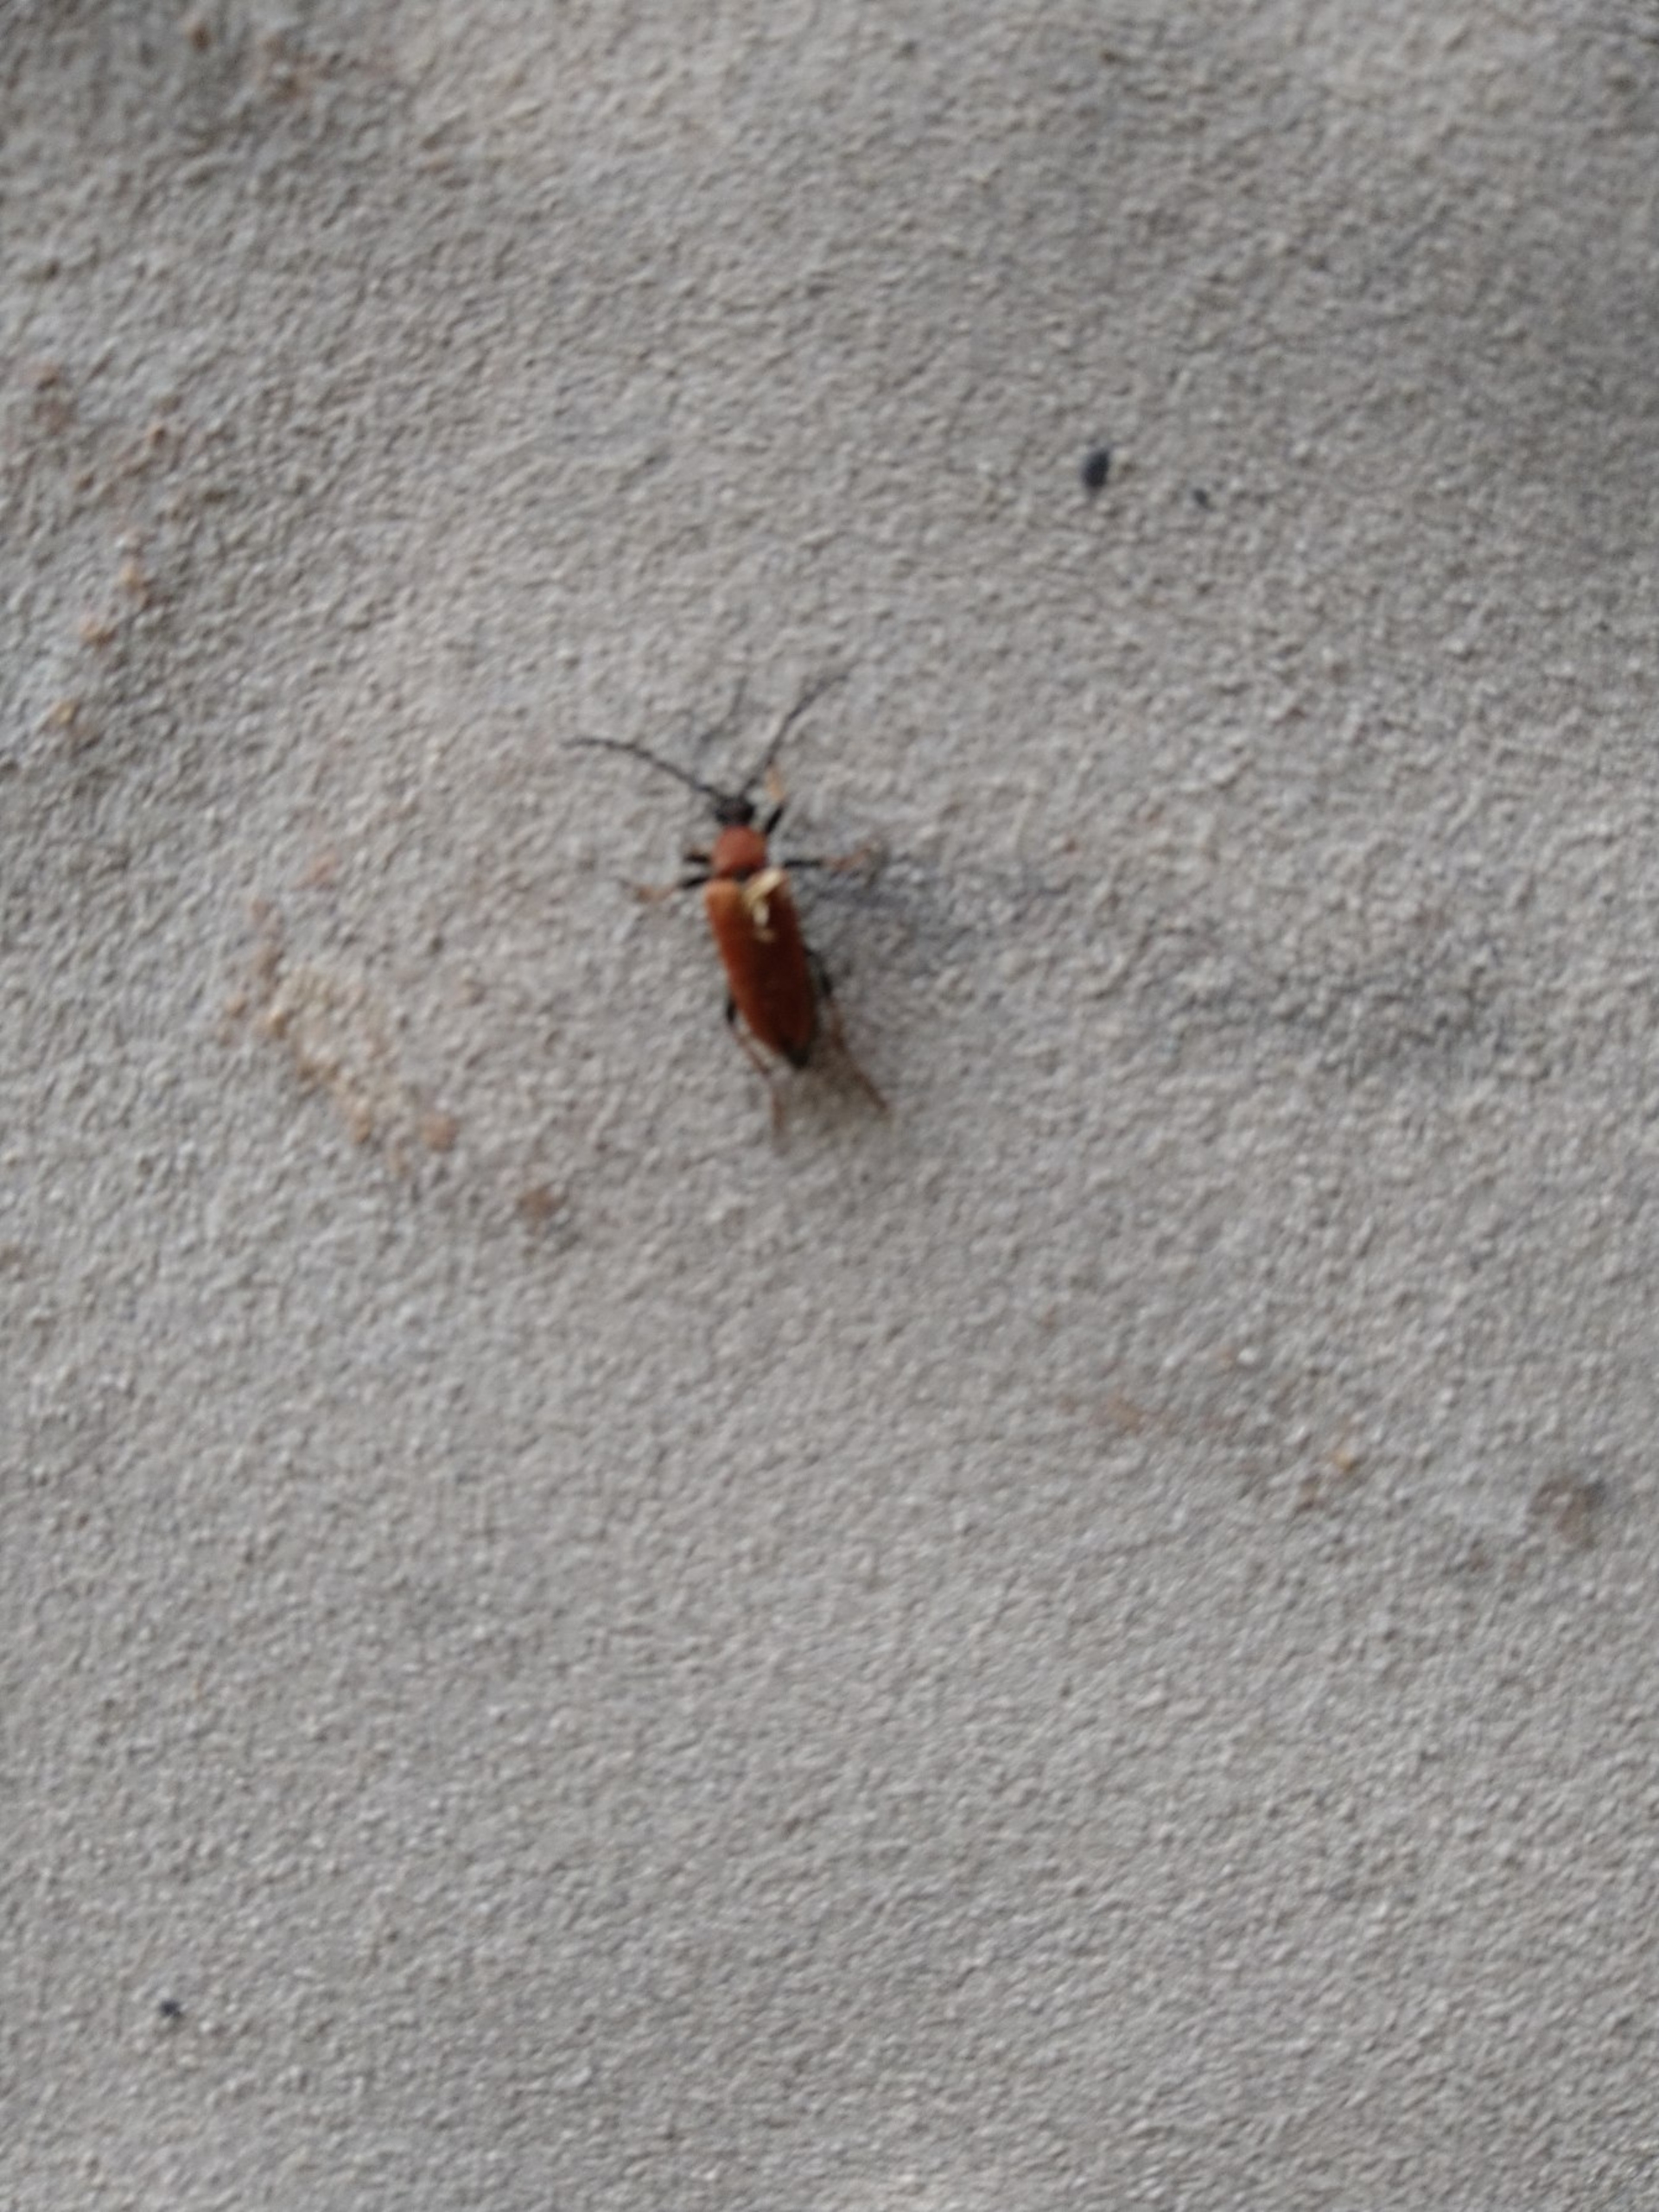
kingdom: Animalia
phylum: Arthropoda
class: Insecta
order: Coleoptera
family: Cerambycidae
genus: Stictoleptura
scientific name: Stictoleptura rubra
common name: Rød blomsterbuk
